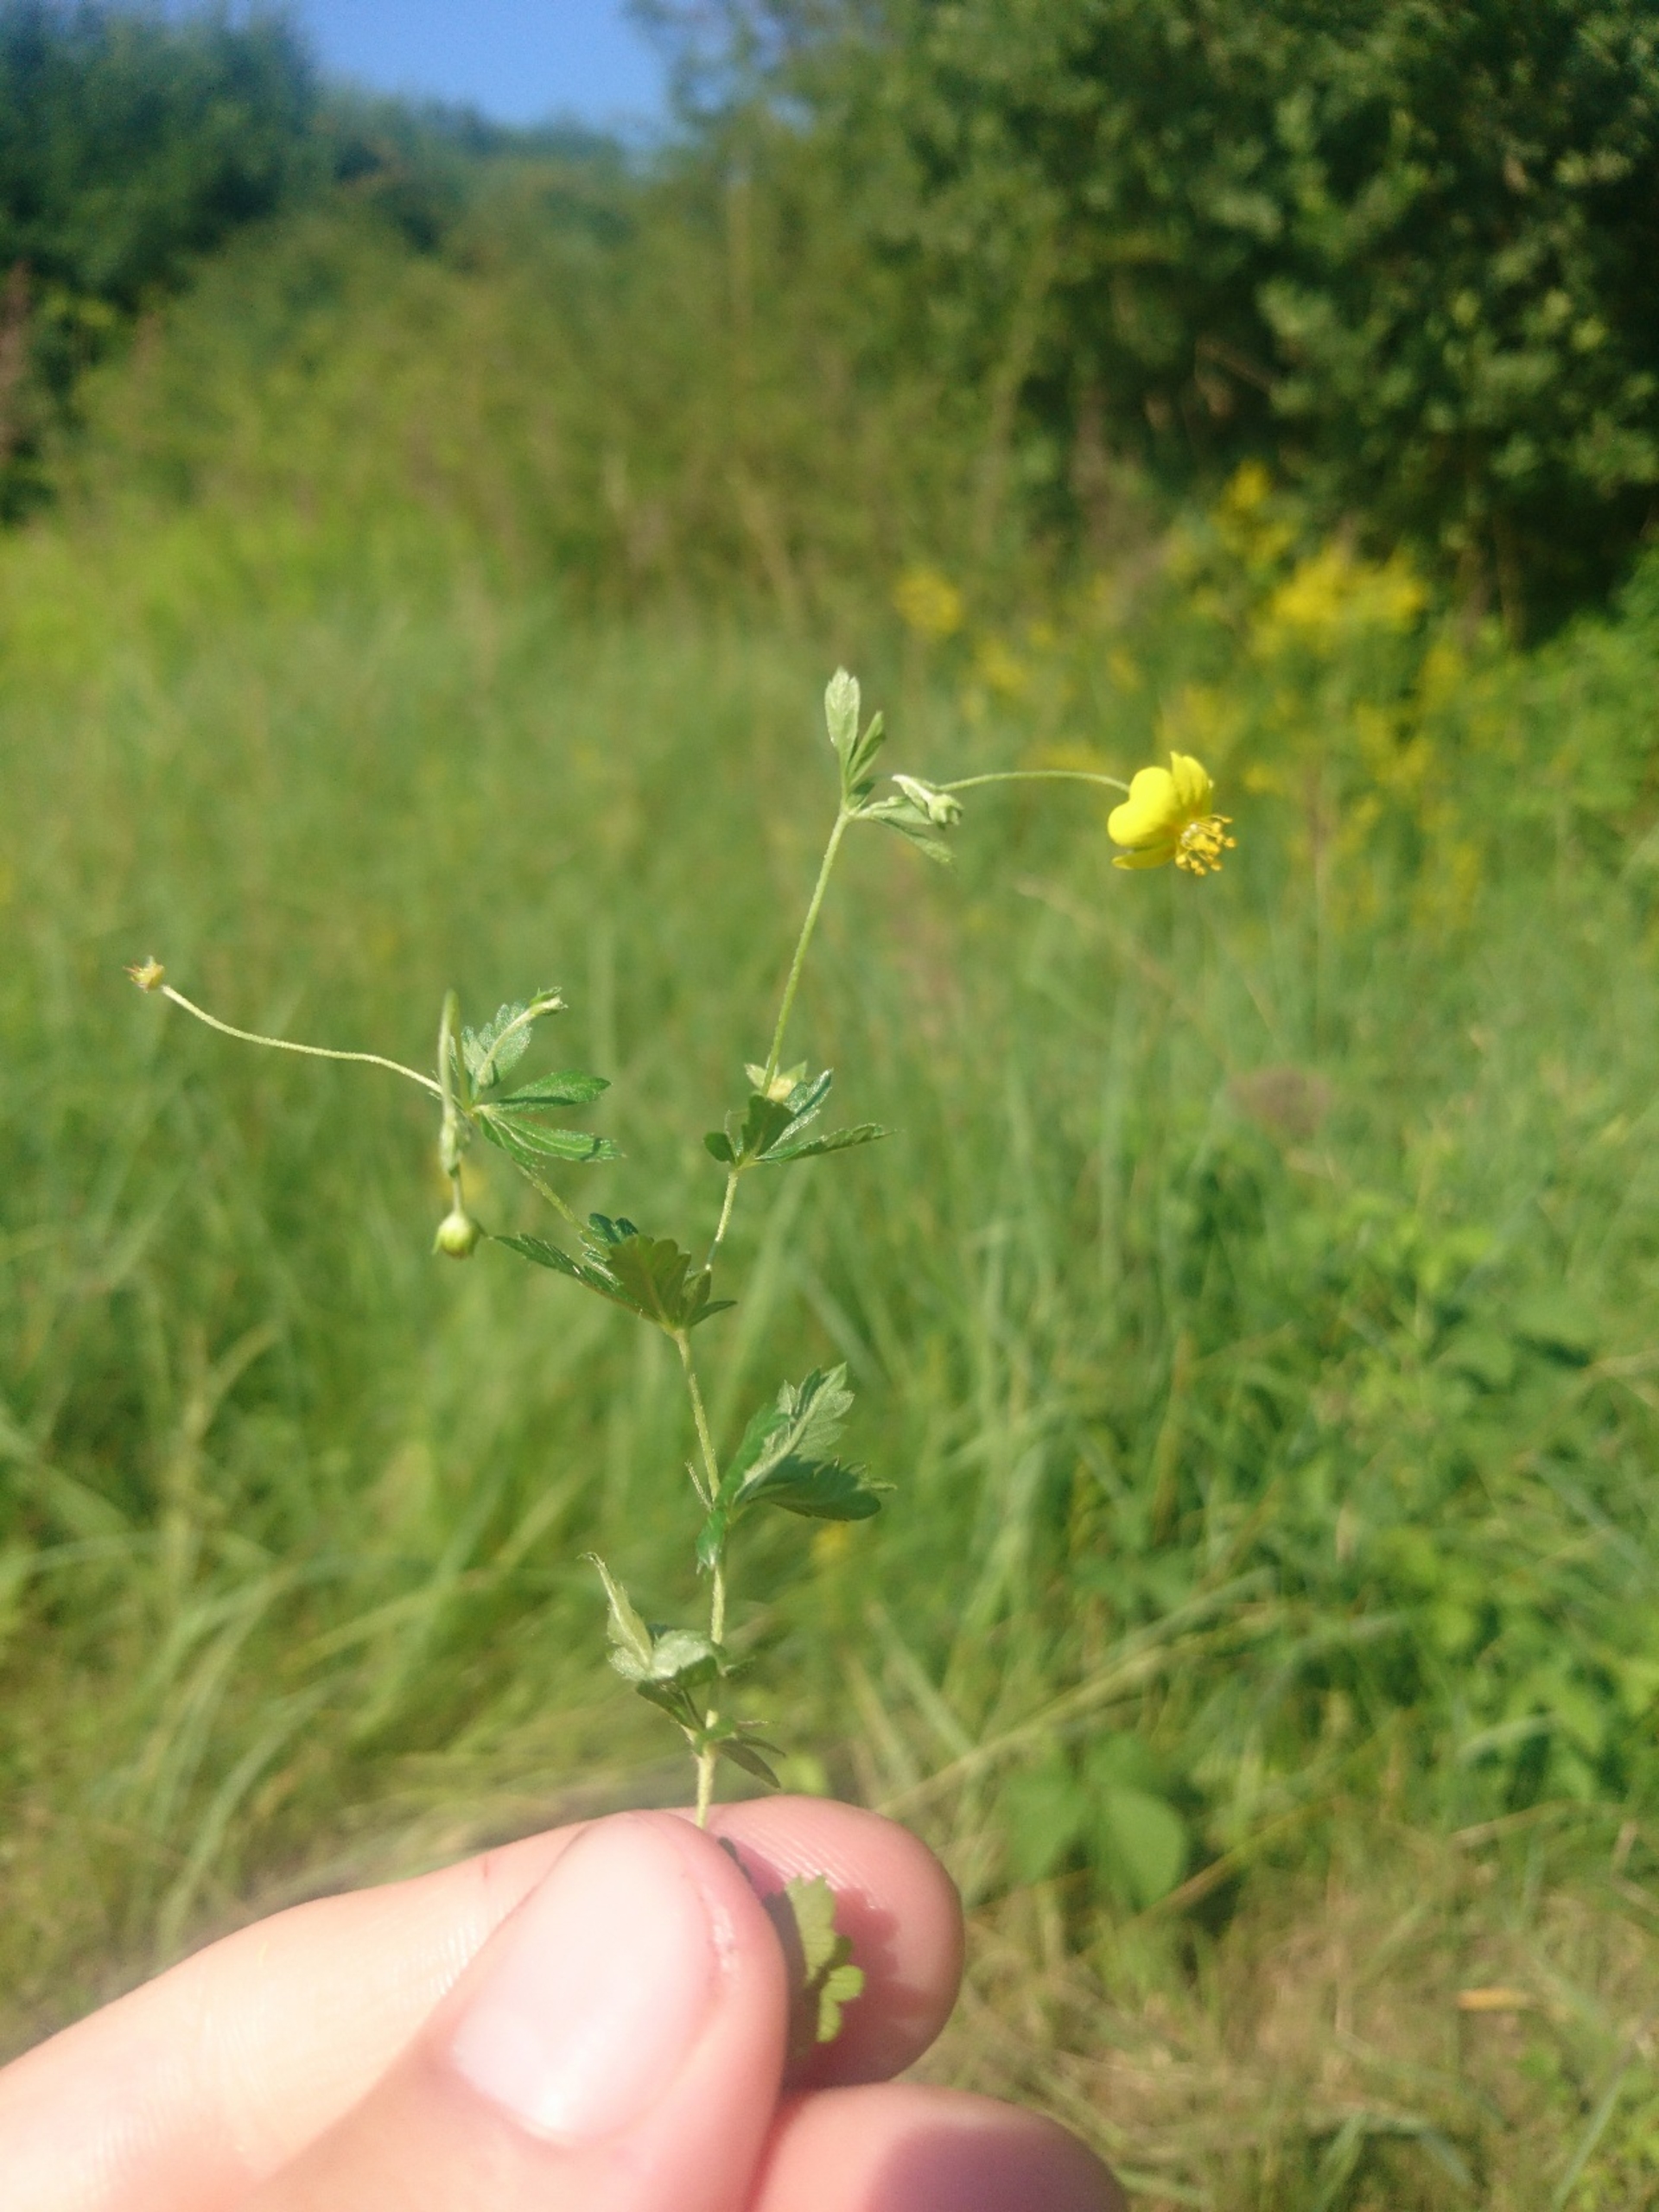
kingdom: Plantae
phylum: Tracheophyta
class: Magnoliopsida
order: Rosales
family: Rosaceae
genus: Potentilla
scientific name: Potentilla erecta
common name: Tormentil
